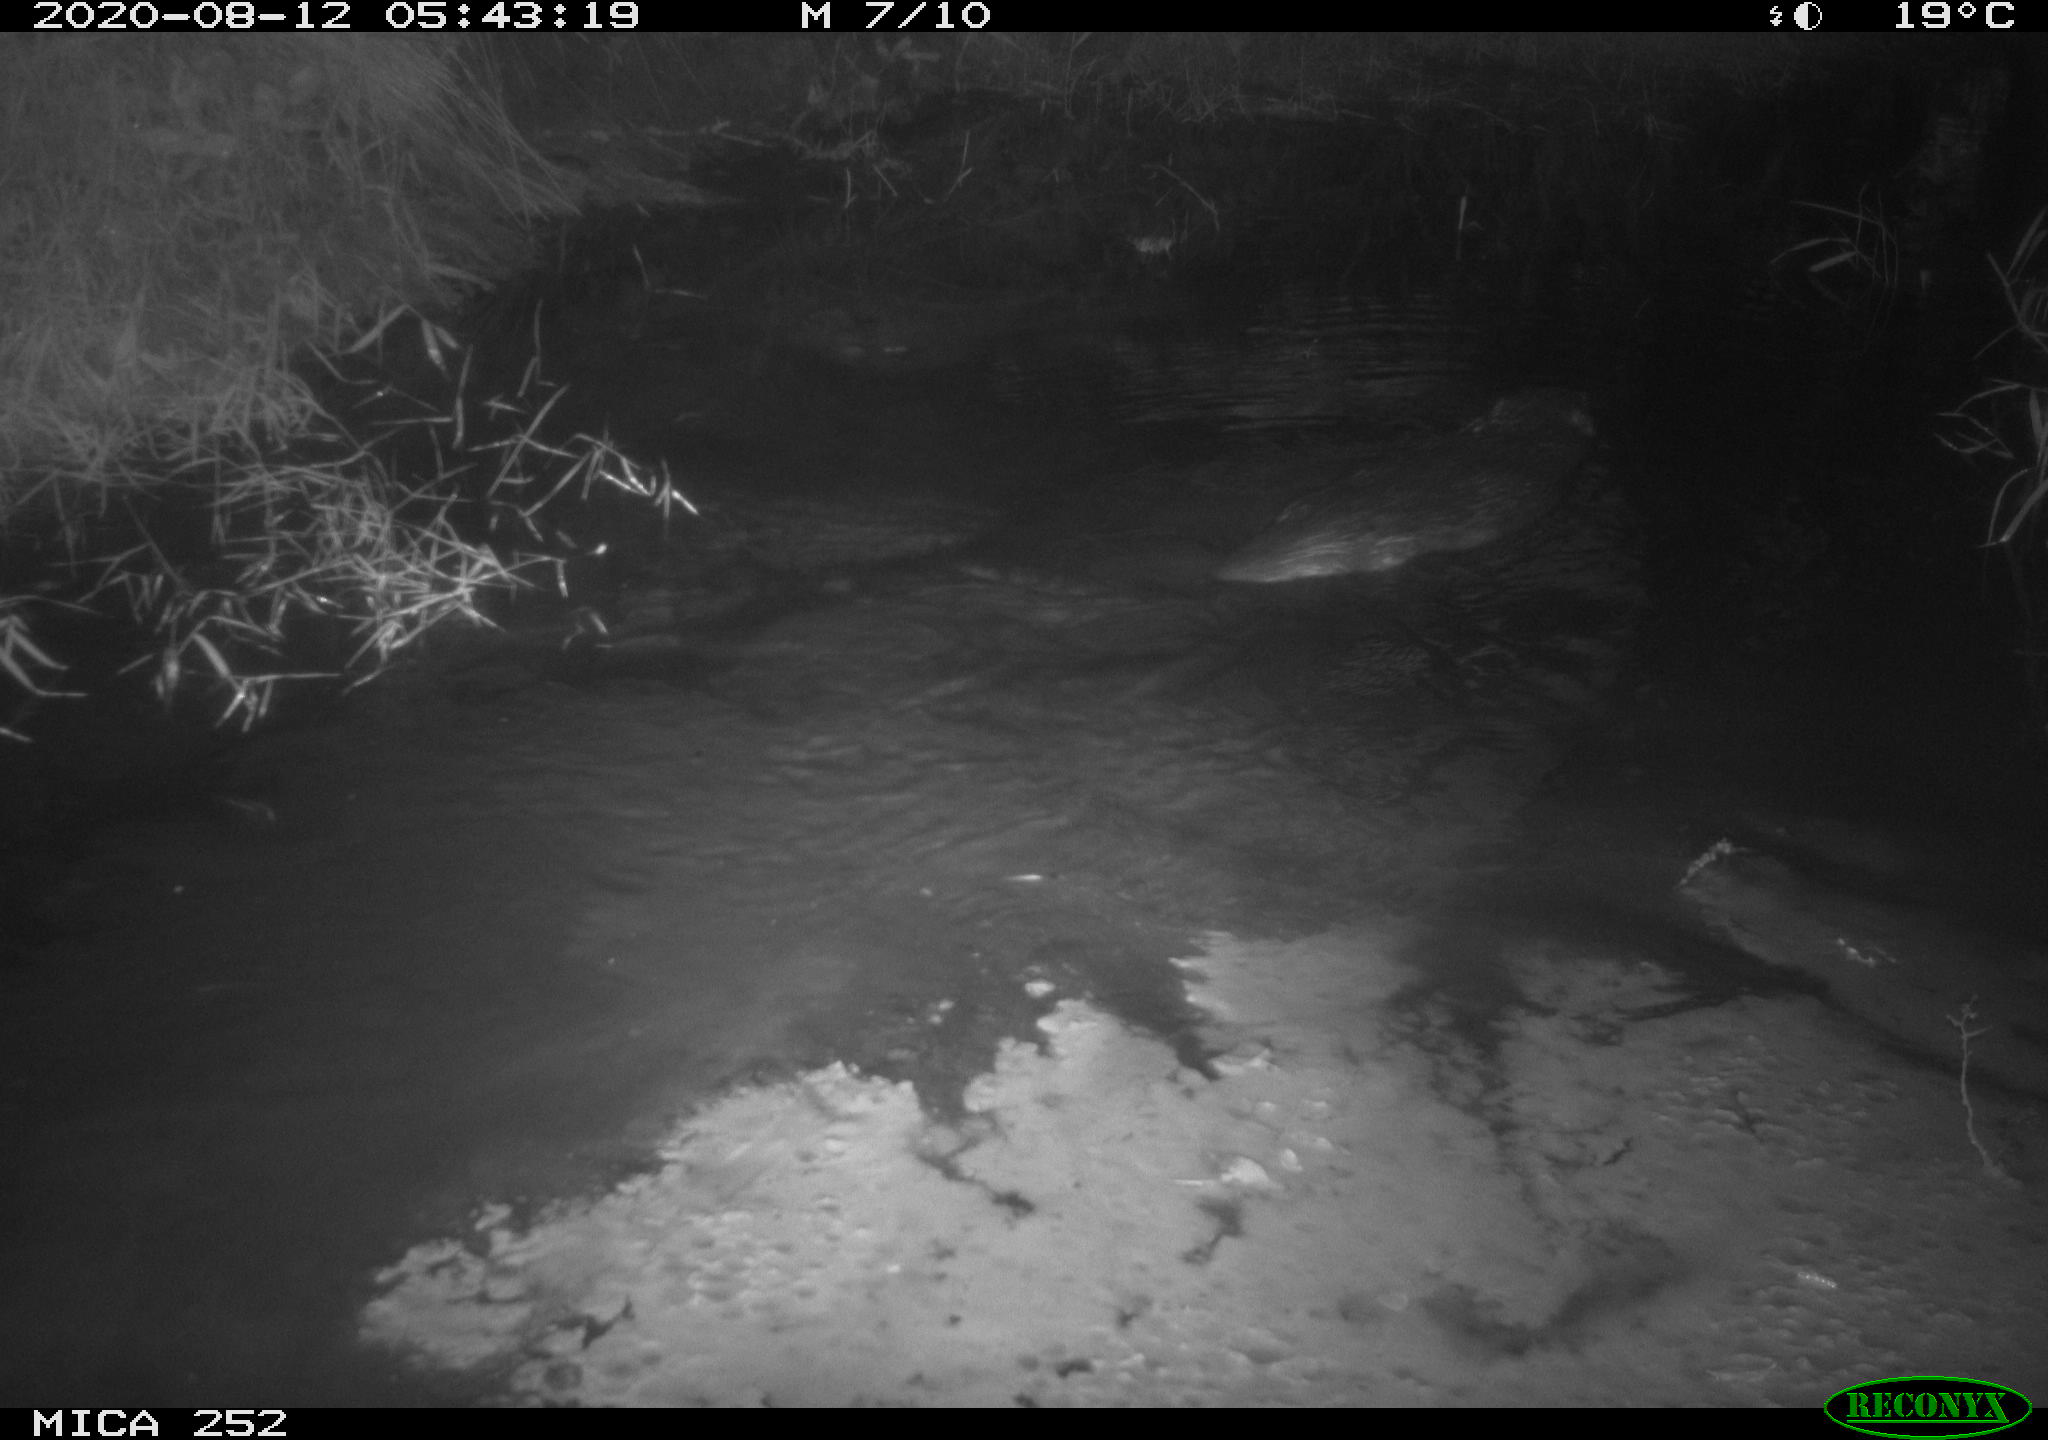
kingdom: Animalia
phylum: Chordata
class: Mammalia
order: Rodentia
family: Castoridae
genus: Castor
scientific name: Castor fiber
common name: Eurasian beaver
